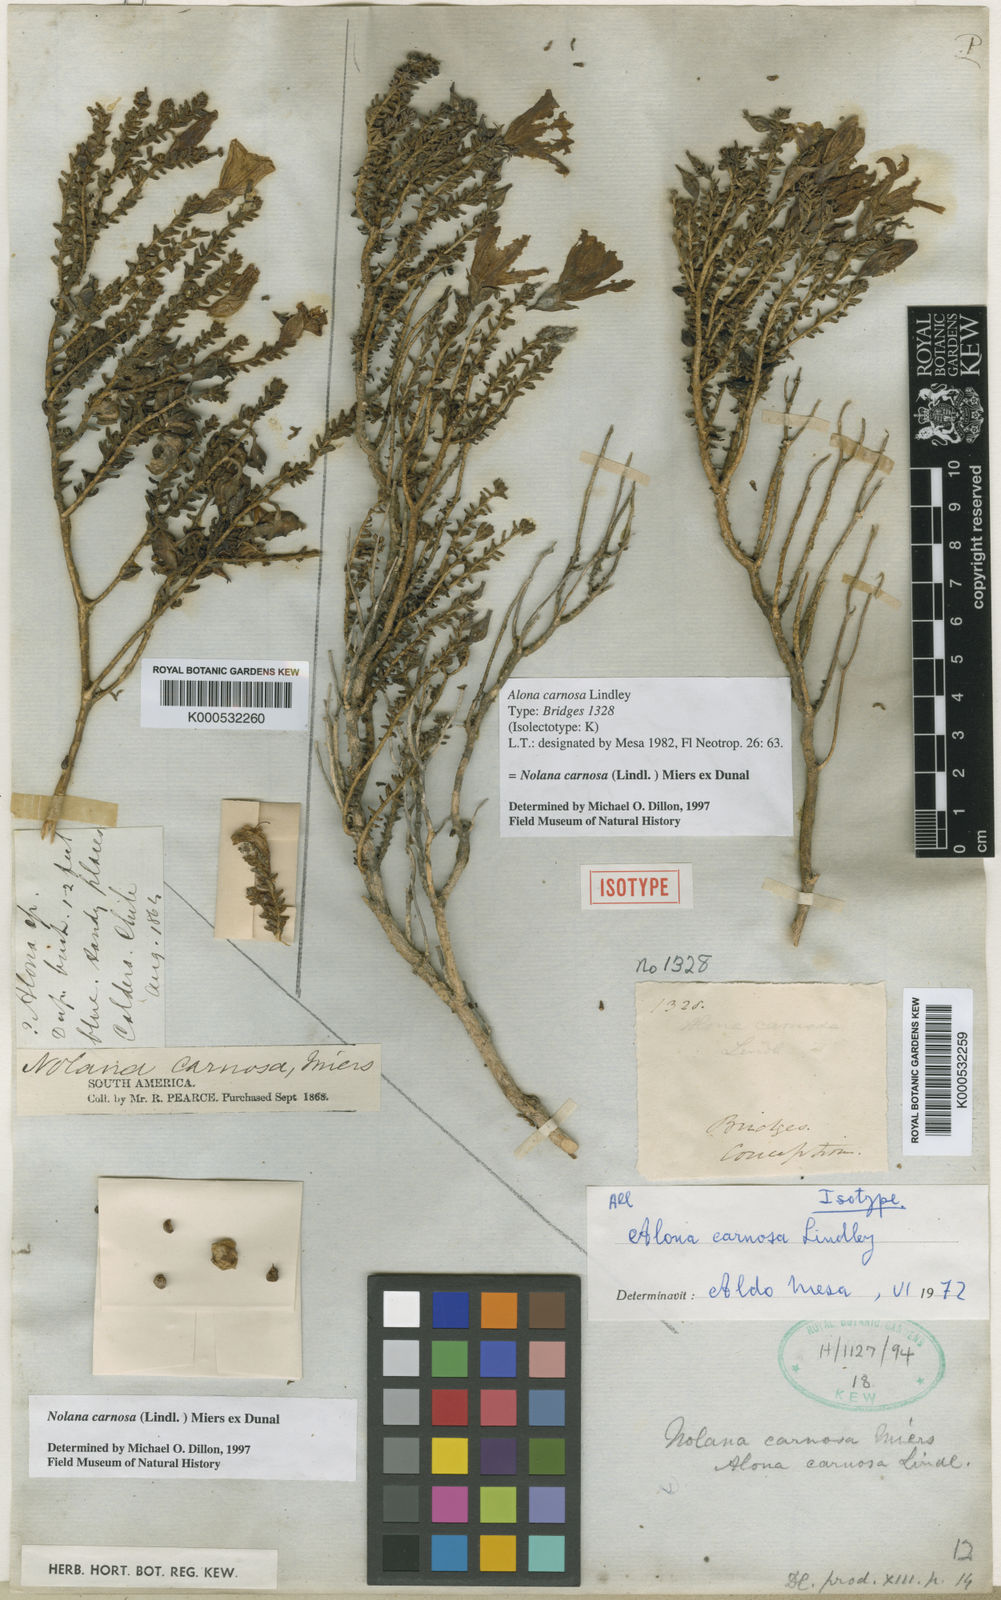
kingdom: Plantae
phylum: Tracheophyta
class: Magnoliopsida
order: Solanales
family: Solanaceae
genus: Nolana
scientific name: Nolana carnosa
